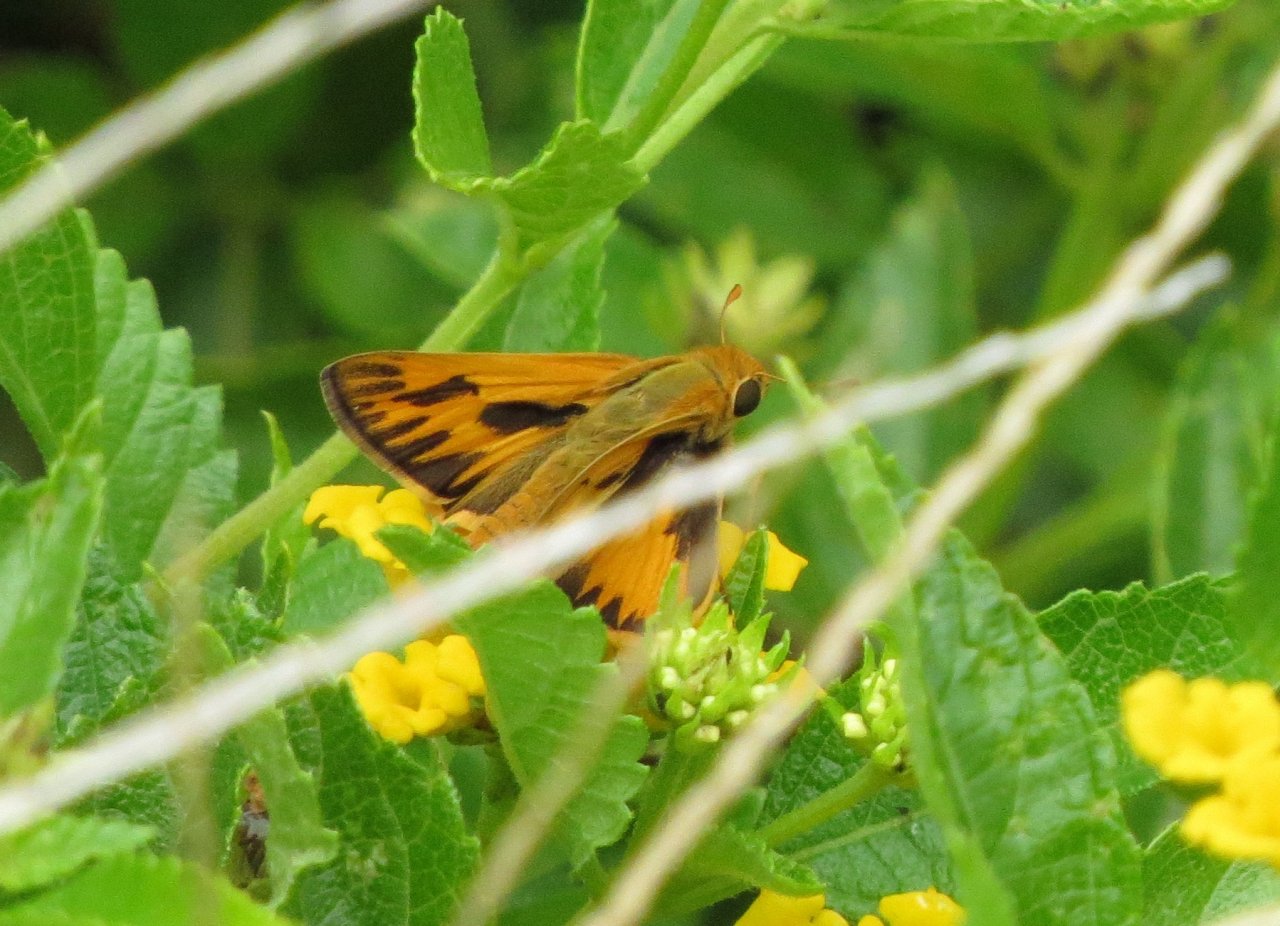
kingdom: Animalia
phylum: Arthropoda
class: Insecta
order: Lepidoptera
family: Hesperiidae
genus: Hylephila
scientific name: Hylephila phyleus
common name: Fiery Skipper
